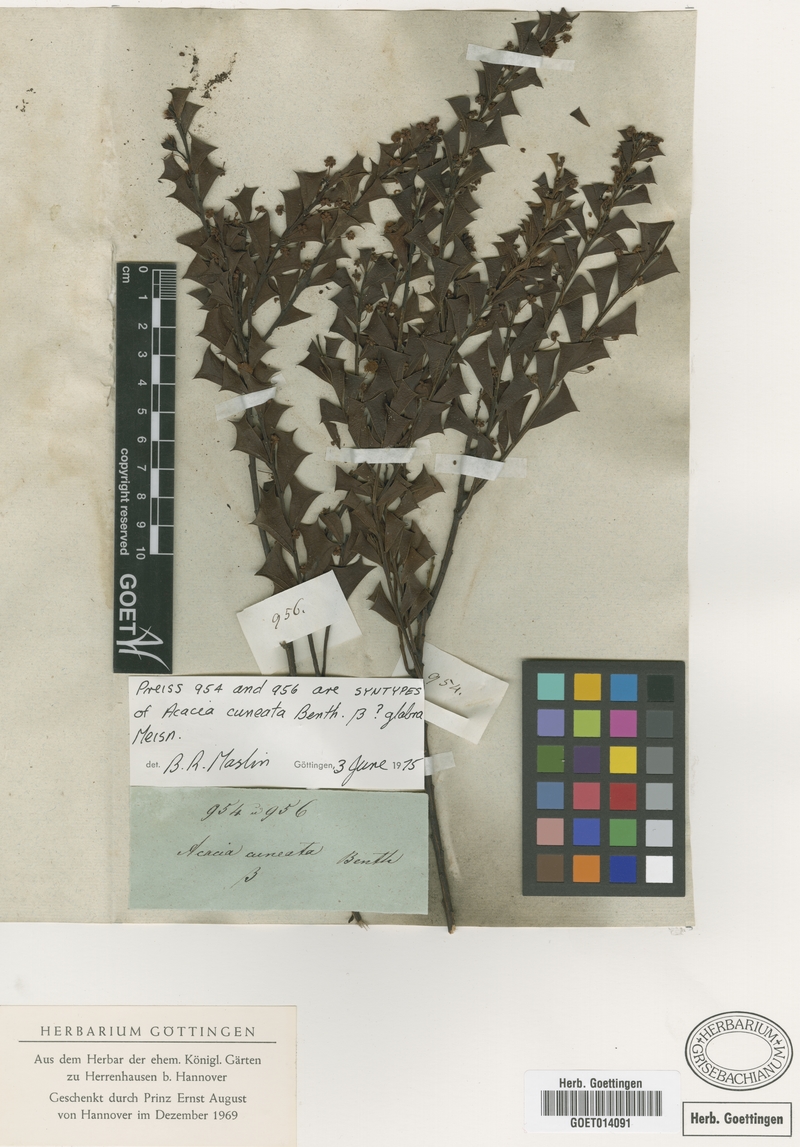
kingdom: Plantae
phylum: Tracheophyta
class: Magnoliopsida
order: Fabales
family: Fabaceae
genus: Acacia
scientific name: Acacia
